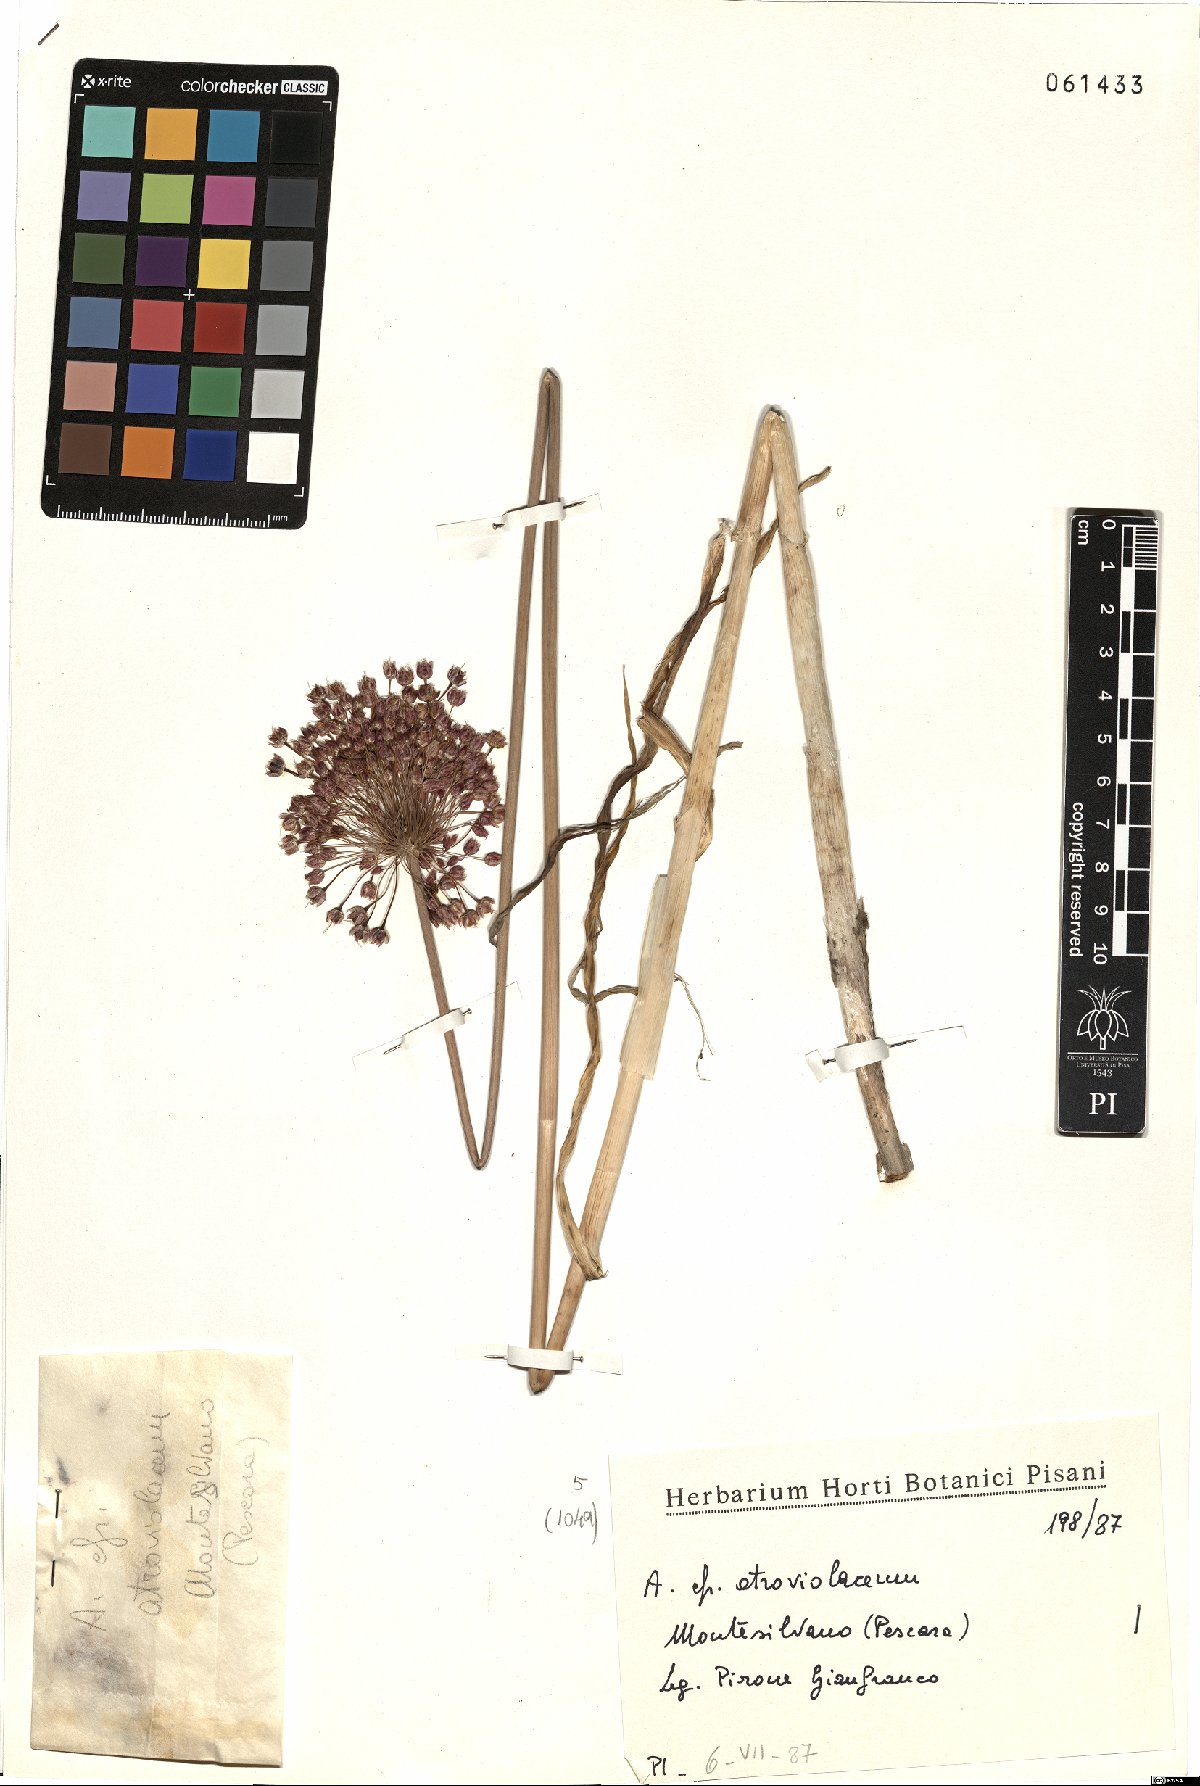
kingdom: Plantae
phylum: Tracheophyta
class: Liliopsida
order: Asparagales
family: Amaryllidaceae
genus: Allium
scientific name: Allium atroviolaceum
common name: Broadleaf wild leek
